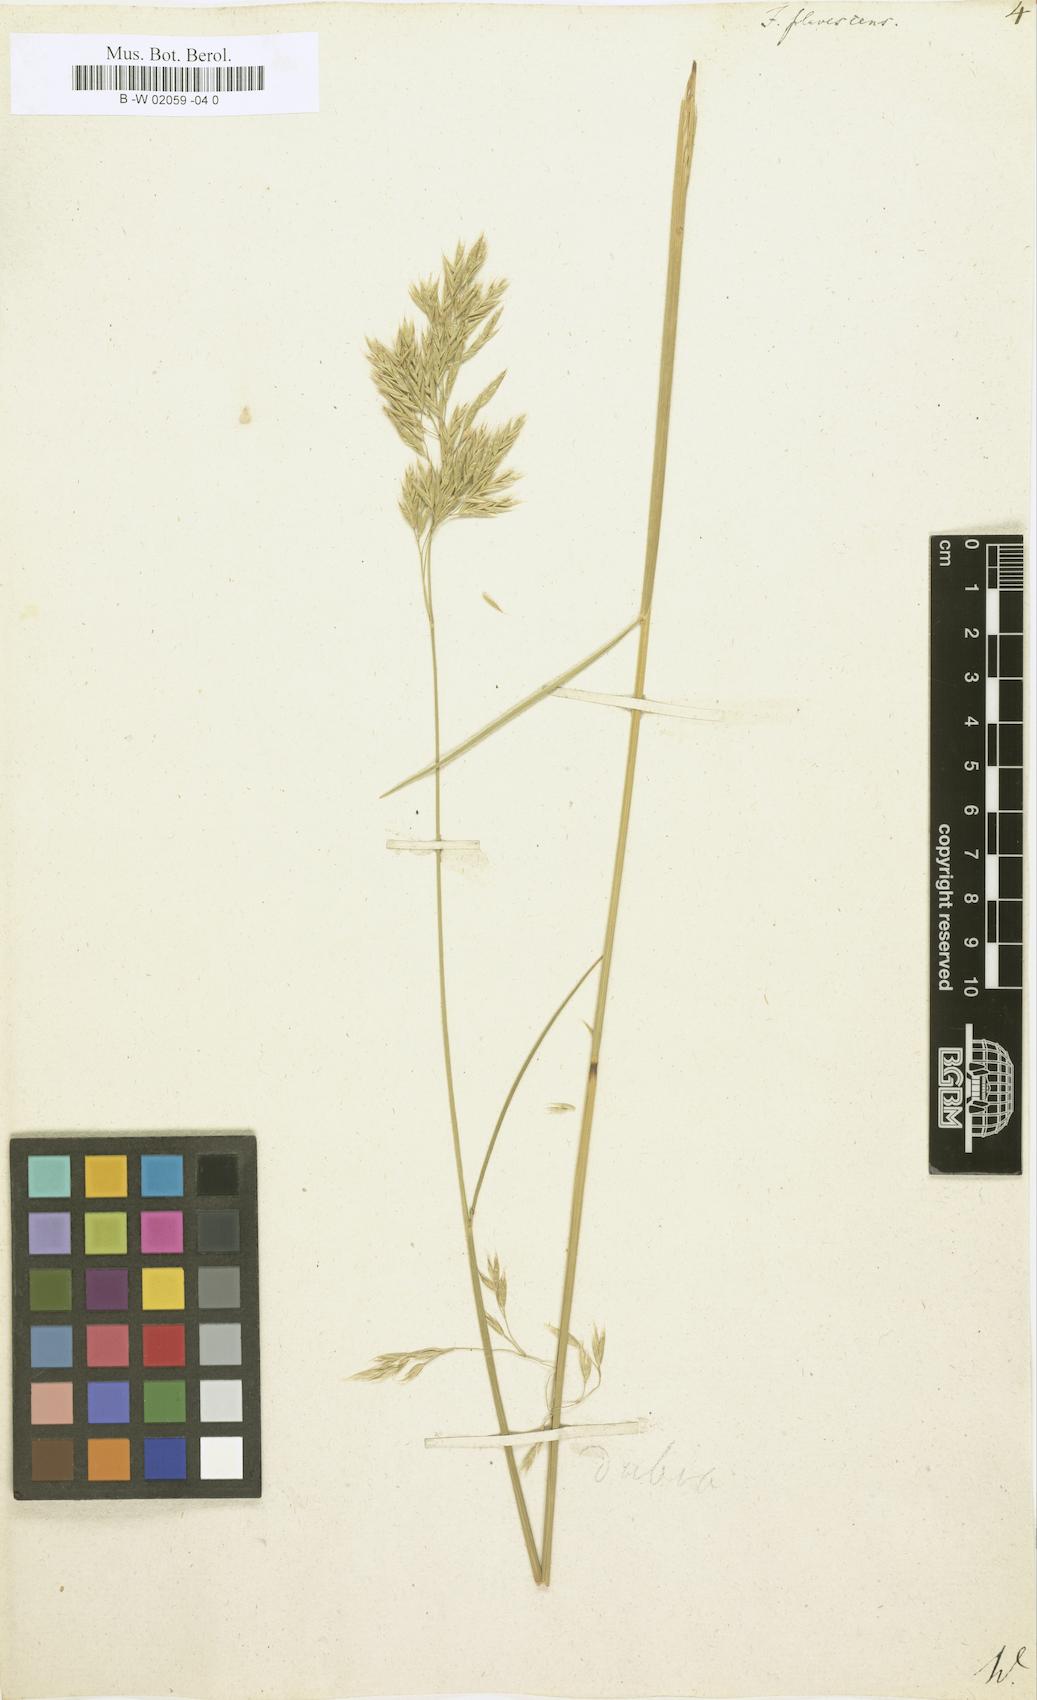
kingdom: Plantae
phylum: Tracheophyta
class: Liliopsida
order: Poales
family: Poaceae
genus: Festuca
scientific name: Festuca flavescens
